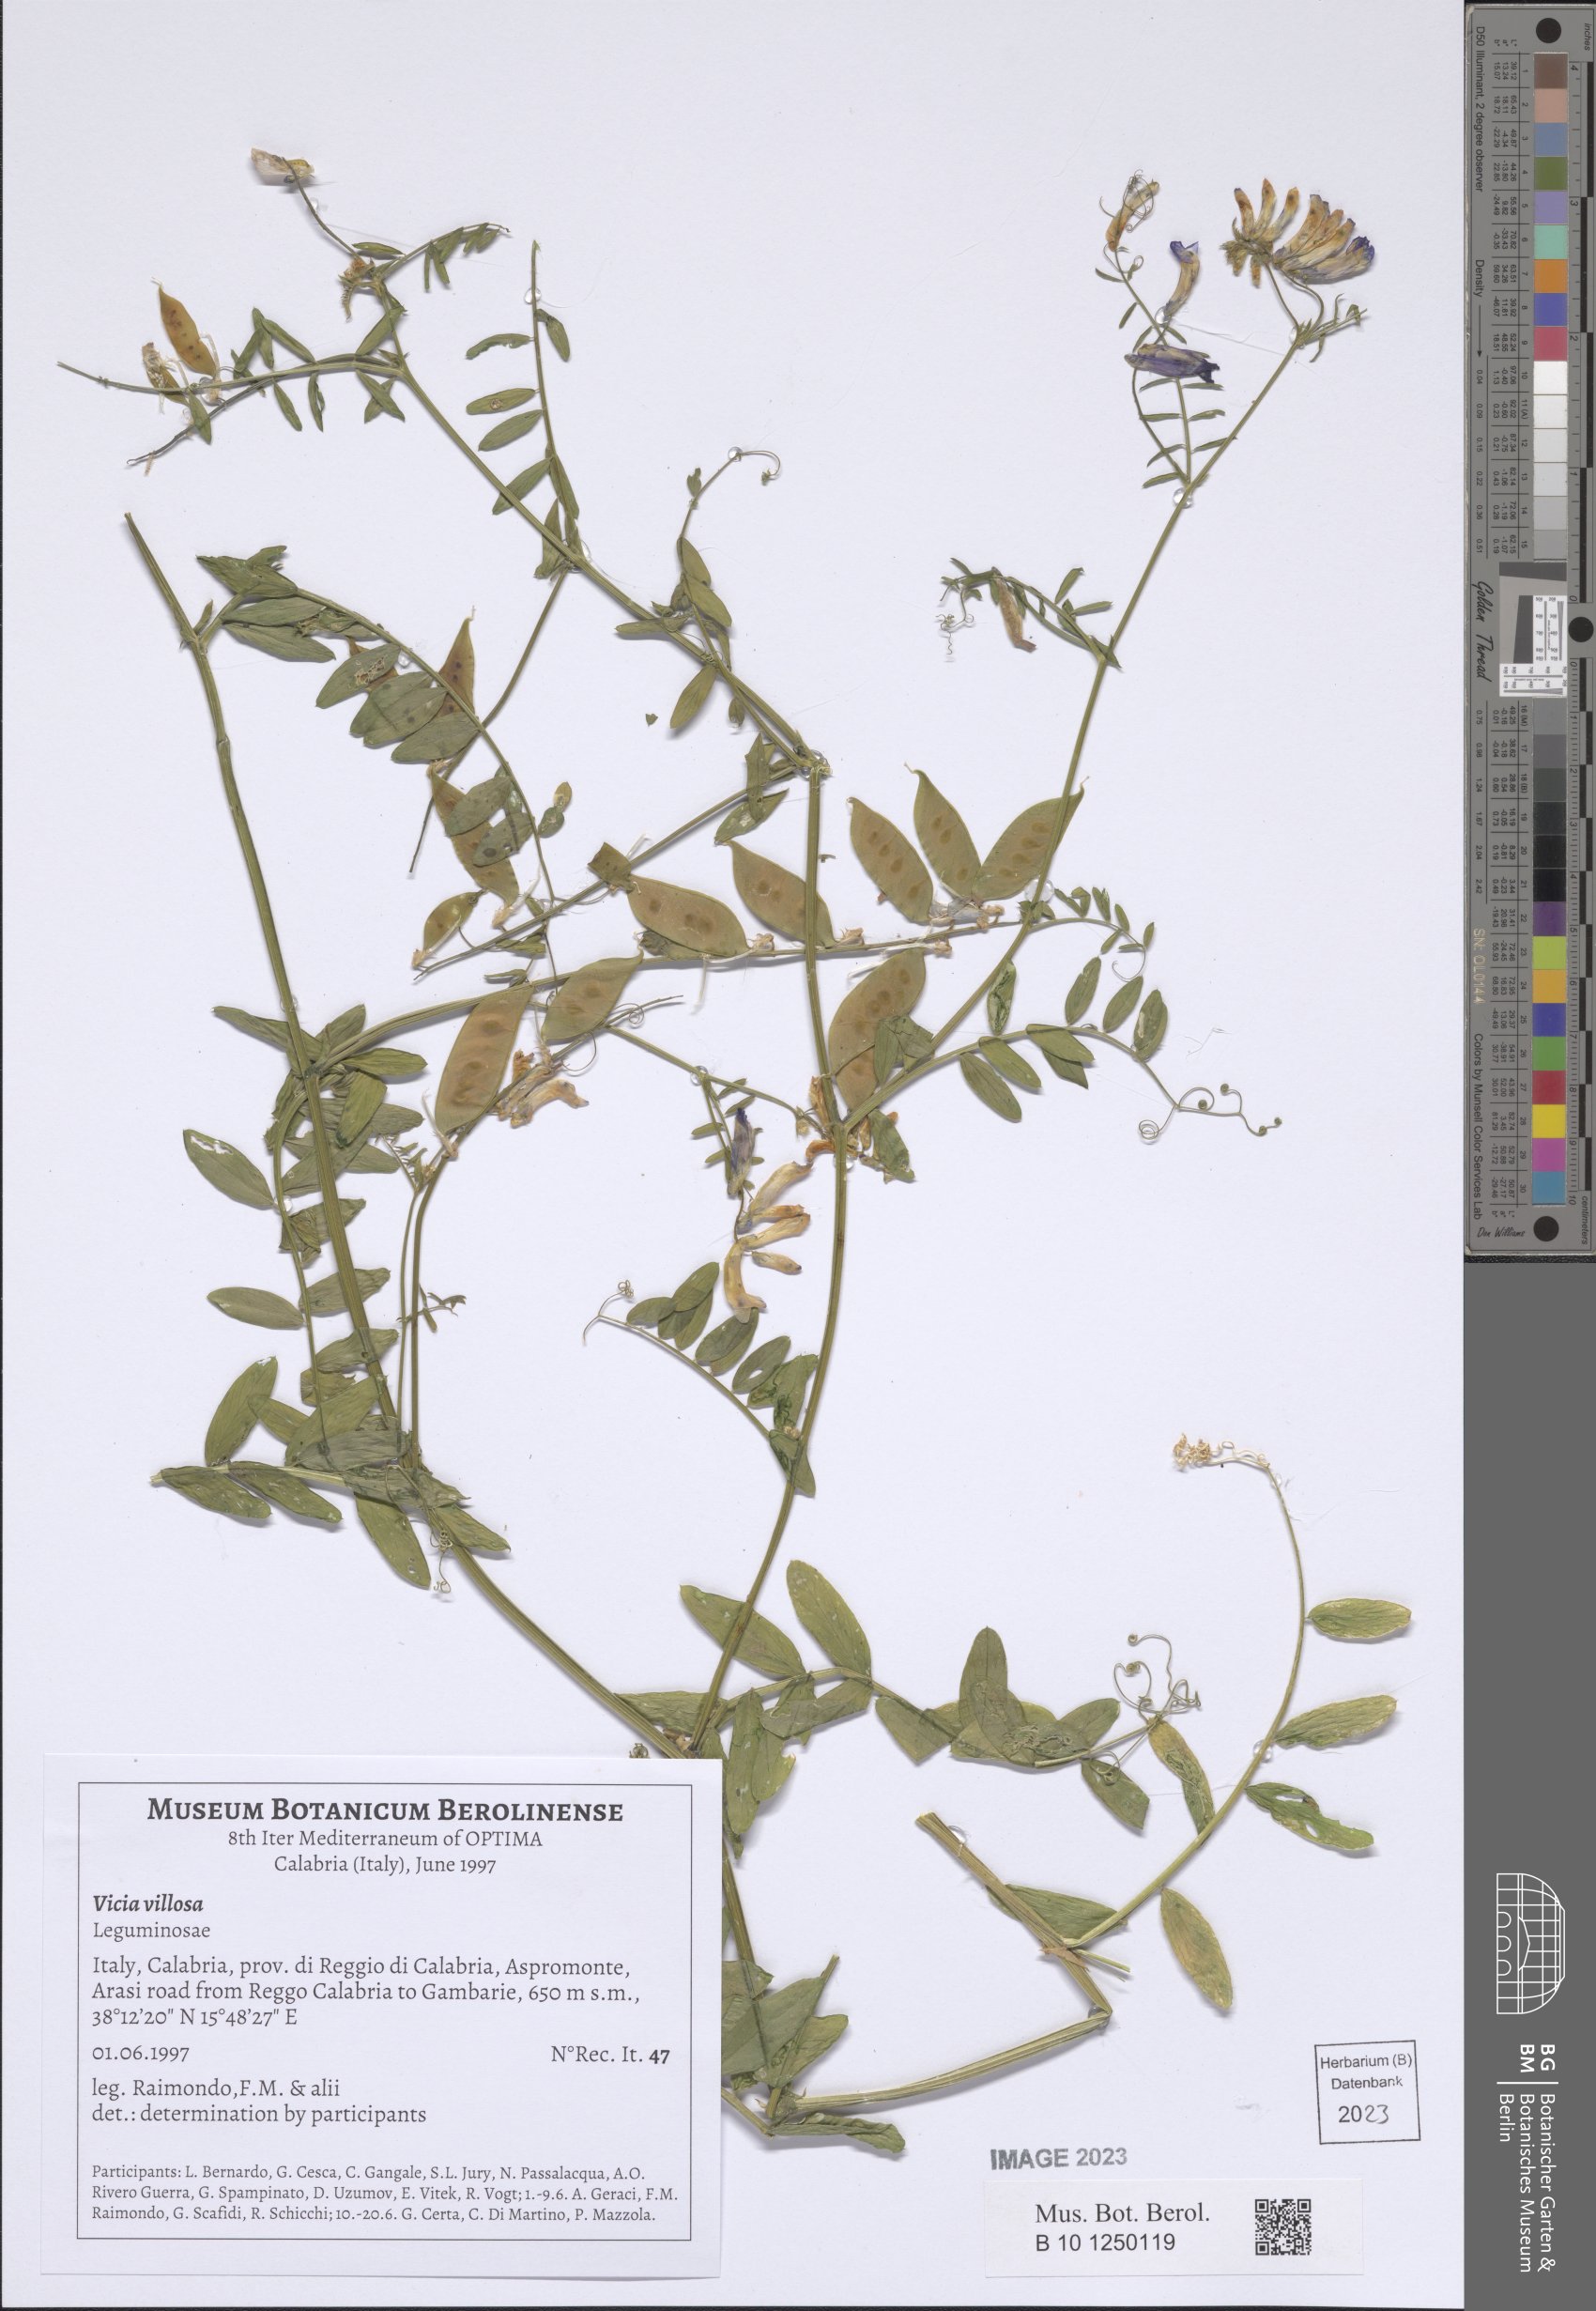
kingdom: Plantae
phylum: Tracheophyta
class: Magnoliopsida
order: Fabales
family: Fabaceae
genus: Vicia
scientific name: Vicia villosa
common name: Fodder vetch
